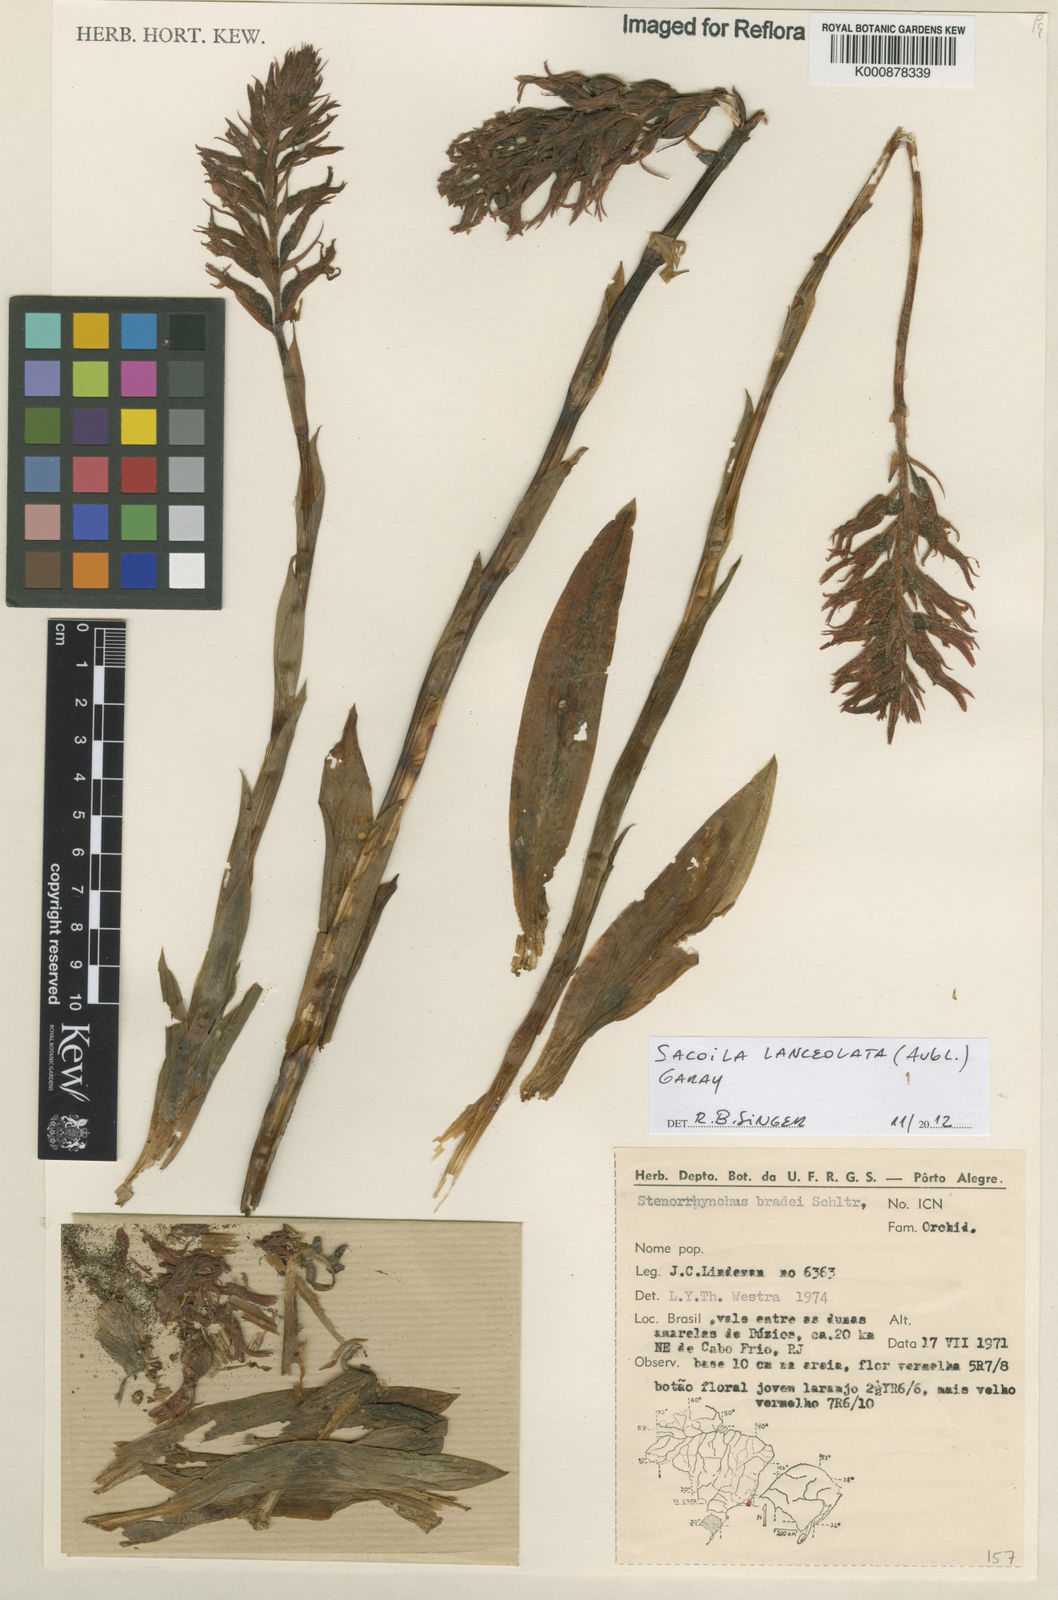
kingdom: Plantae
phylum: Tracheophyta
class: Liliopsida
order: Asparagales
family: Orchidaceae
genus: Sacoila
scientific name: Sacoila lanceolata
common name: Leafless beaked ladiestresses
